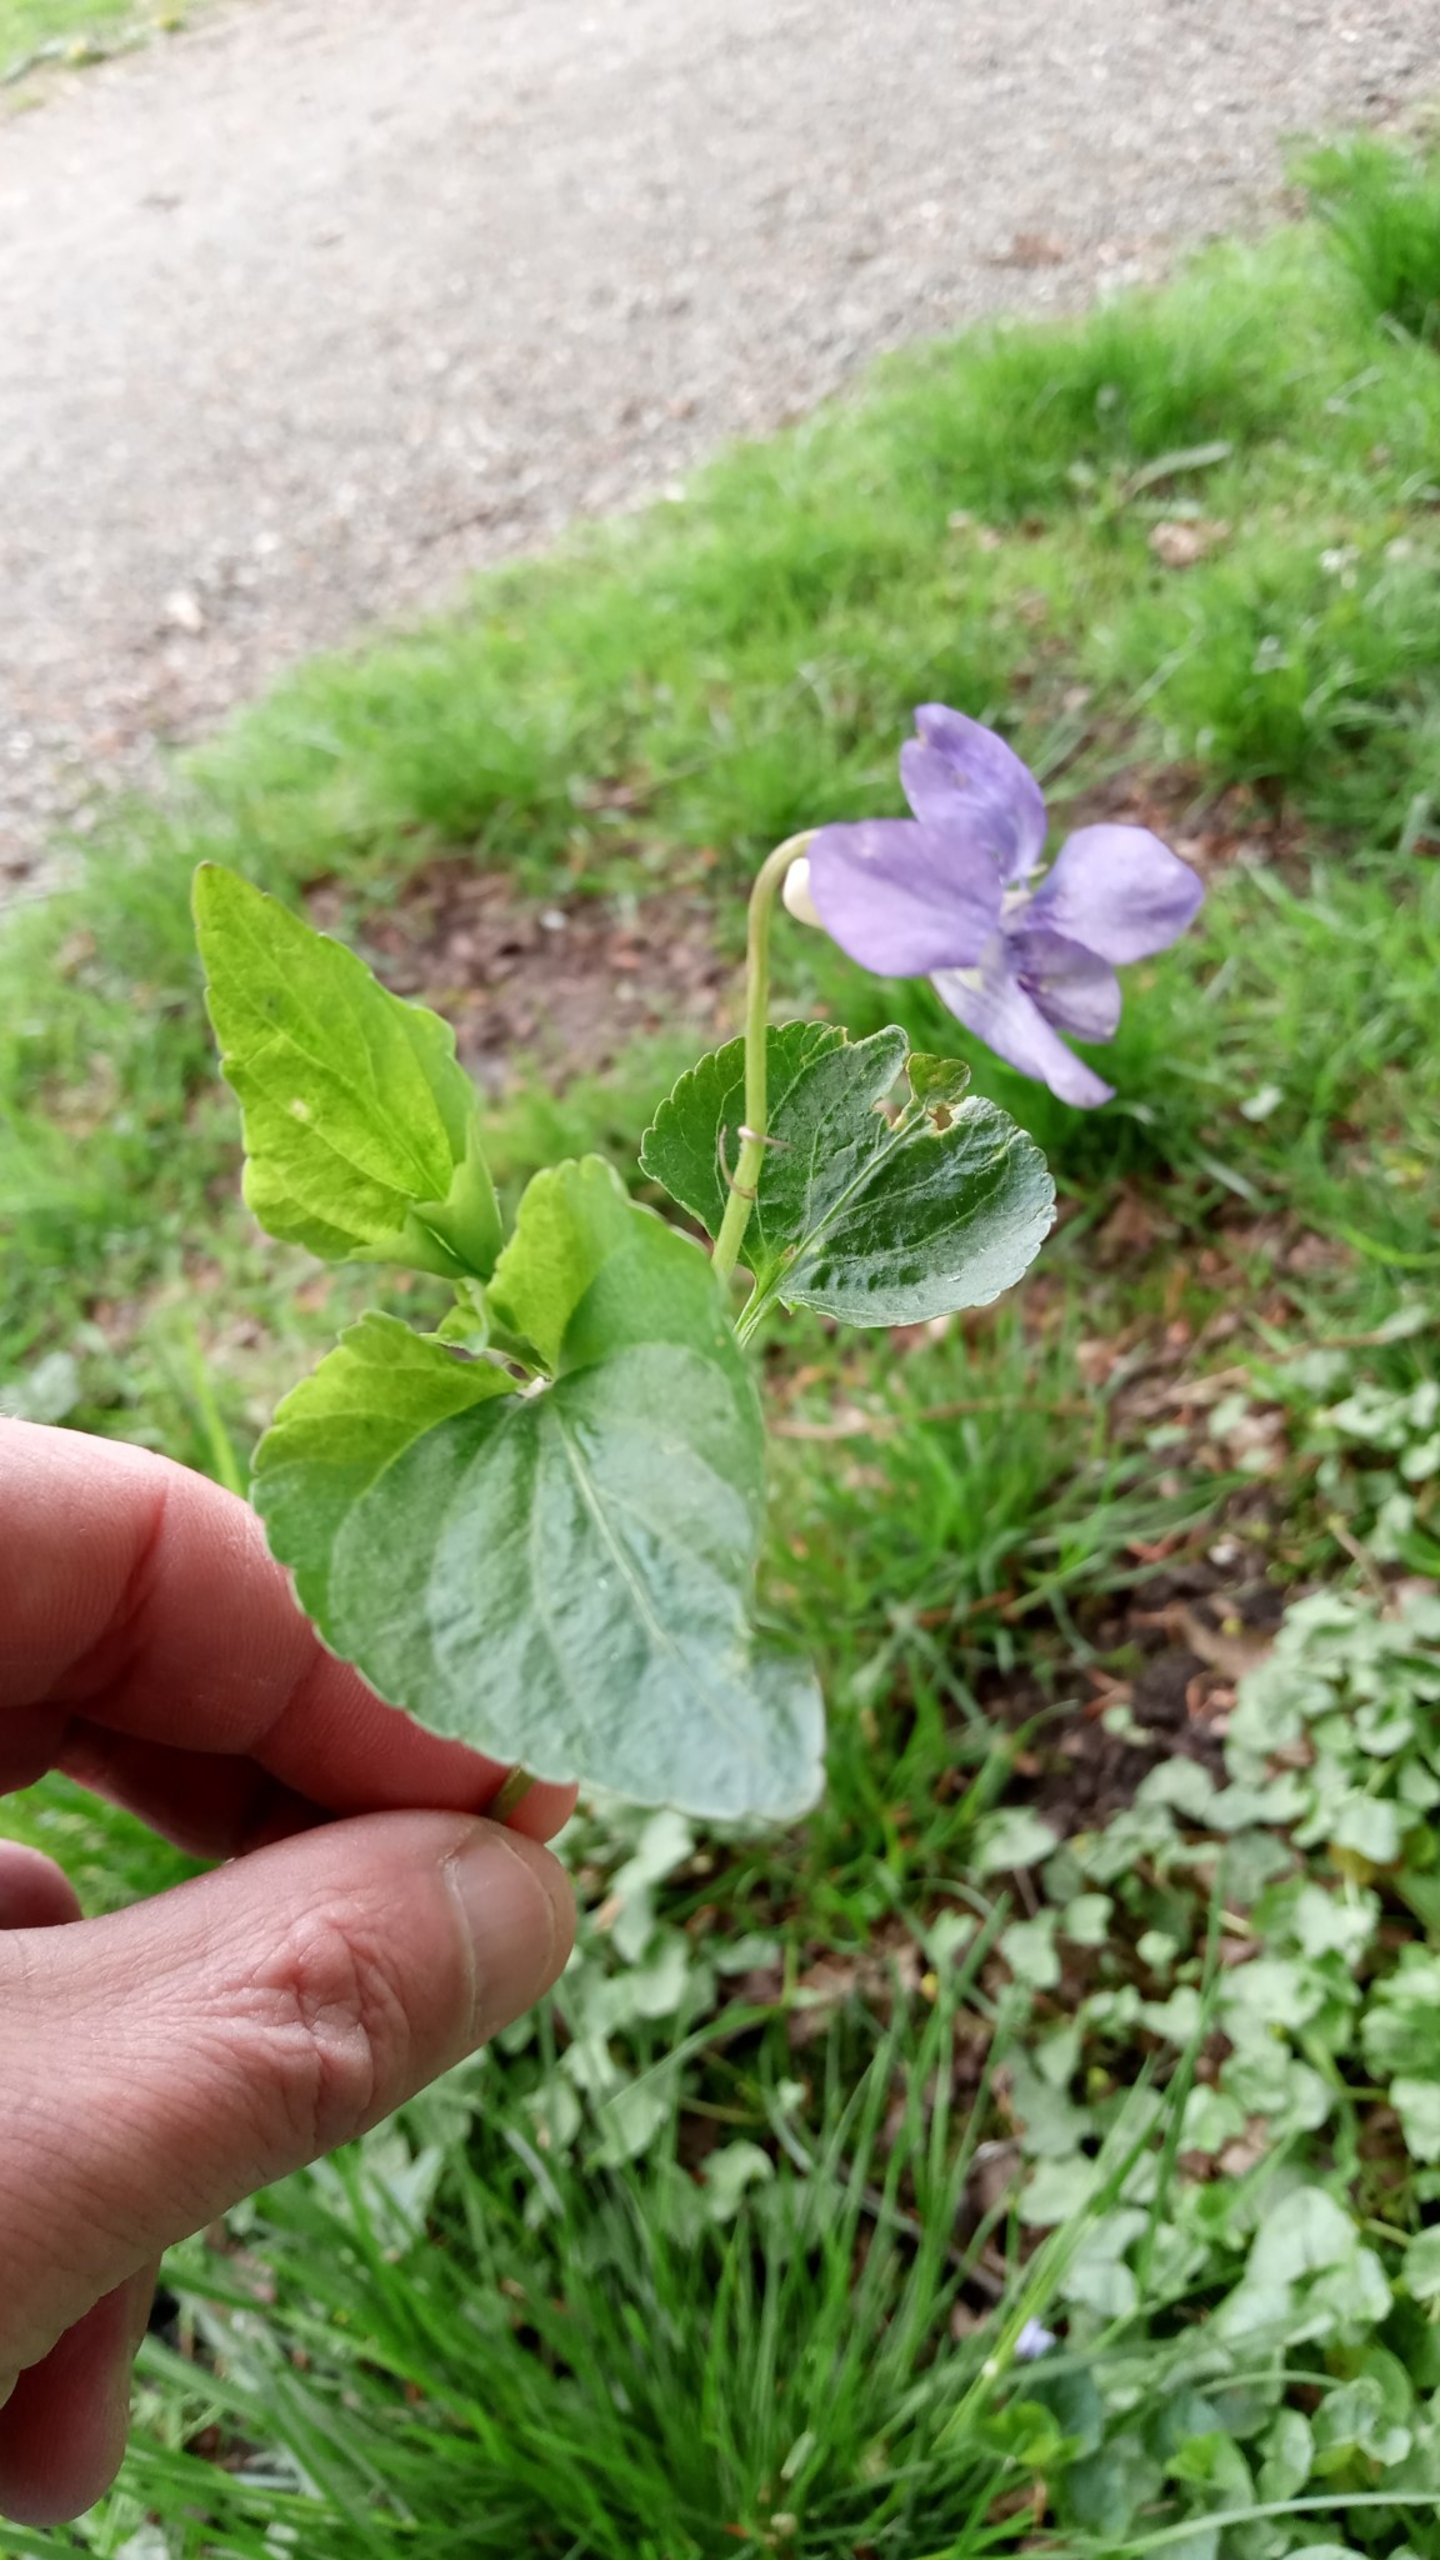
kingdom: Plantae
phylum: Tracheophyta
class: Magnoliopsida
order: Malpighiales
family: Violaceae
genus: Viola
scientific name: Viola riviniana
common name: Krat-viol
